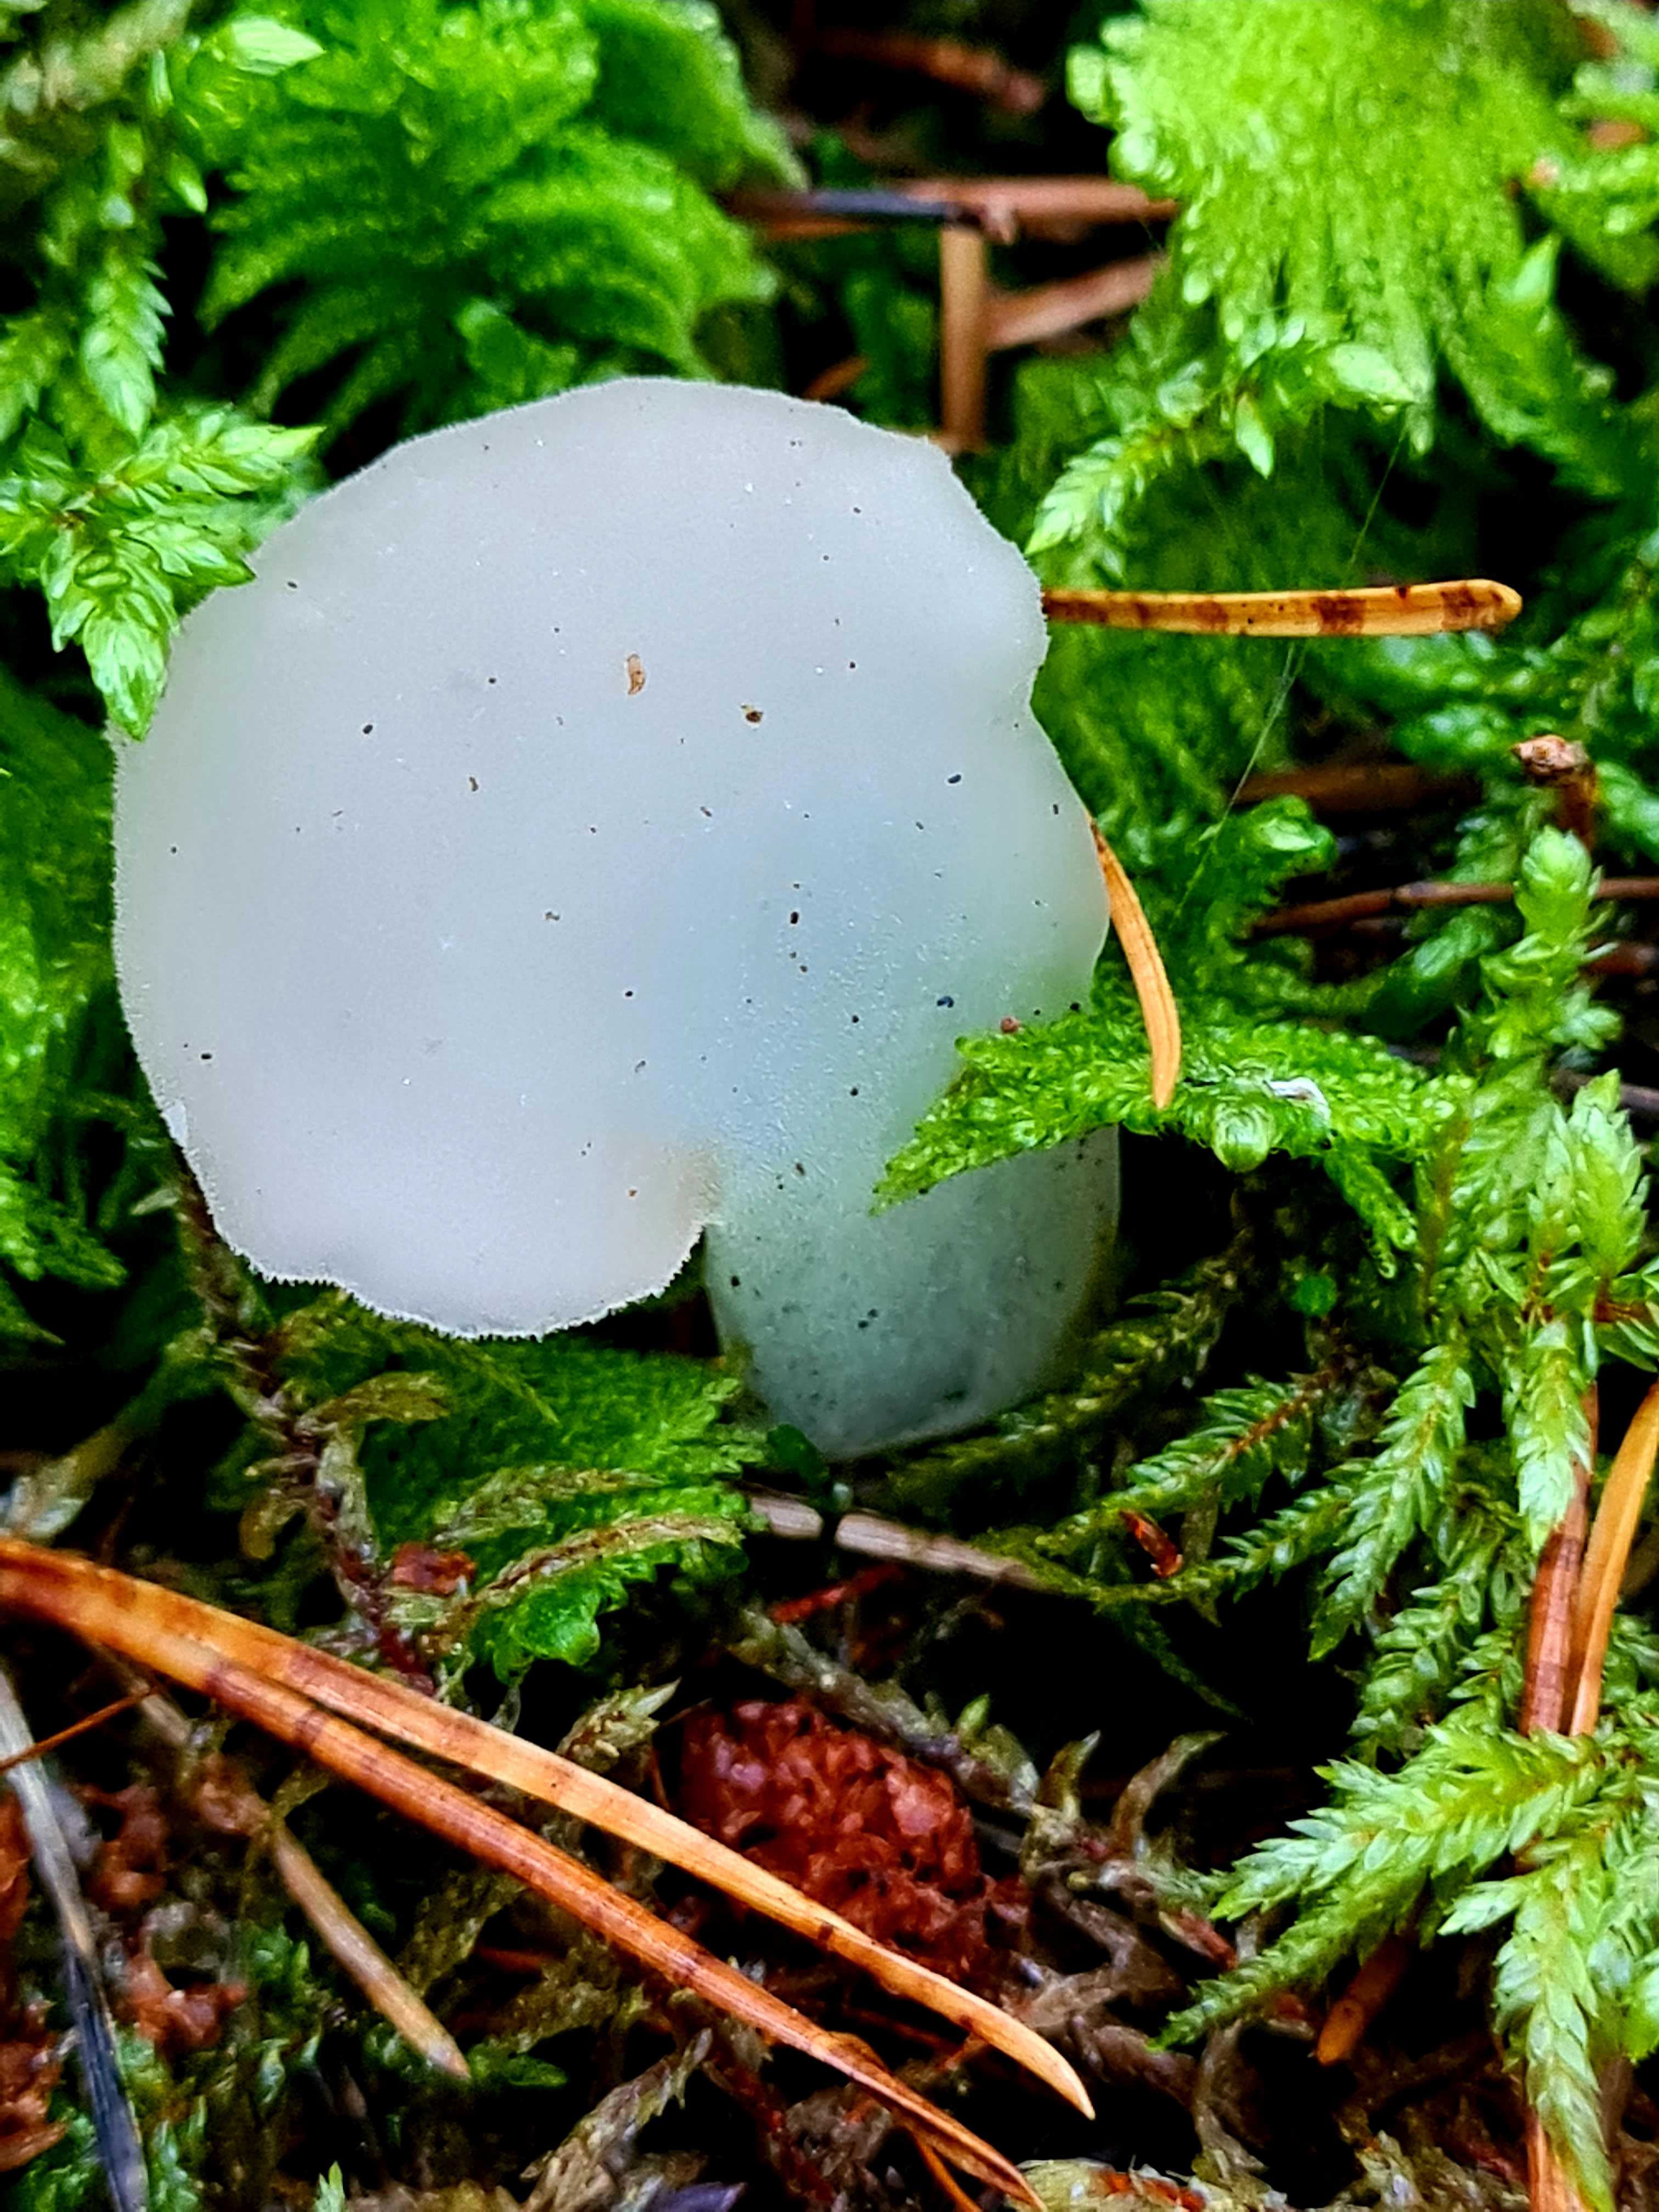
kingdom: Fungi
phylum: Basidiomycota
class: Agaricomycetes
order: Auriculariales
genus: Pseudohydnum
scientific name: Pseudohydnum gelatinosum
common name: bævretand
